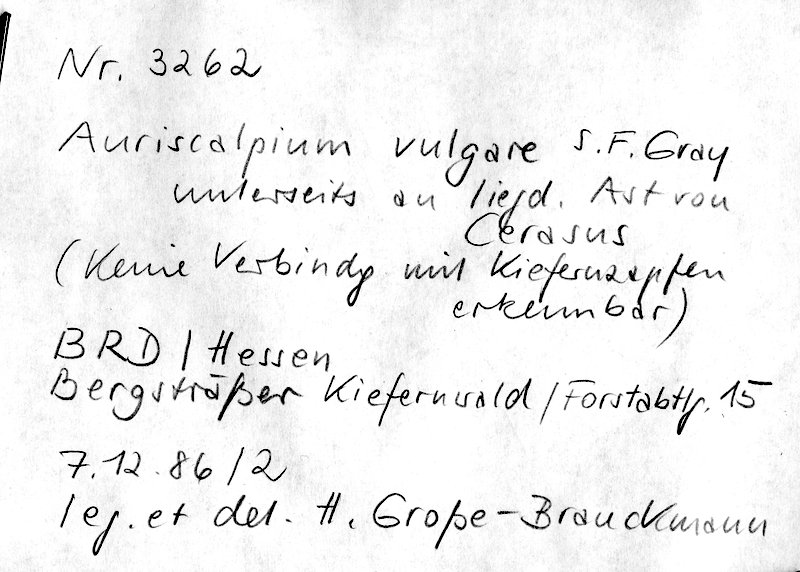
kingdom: Fungi
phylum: Basidiomycota
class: Agaricomycetes
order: Russulales
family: Auriscalpiaceae
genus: Auriscalpium
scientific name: Auriscalpium vulgare
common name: Earpick fungus
